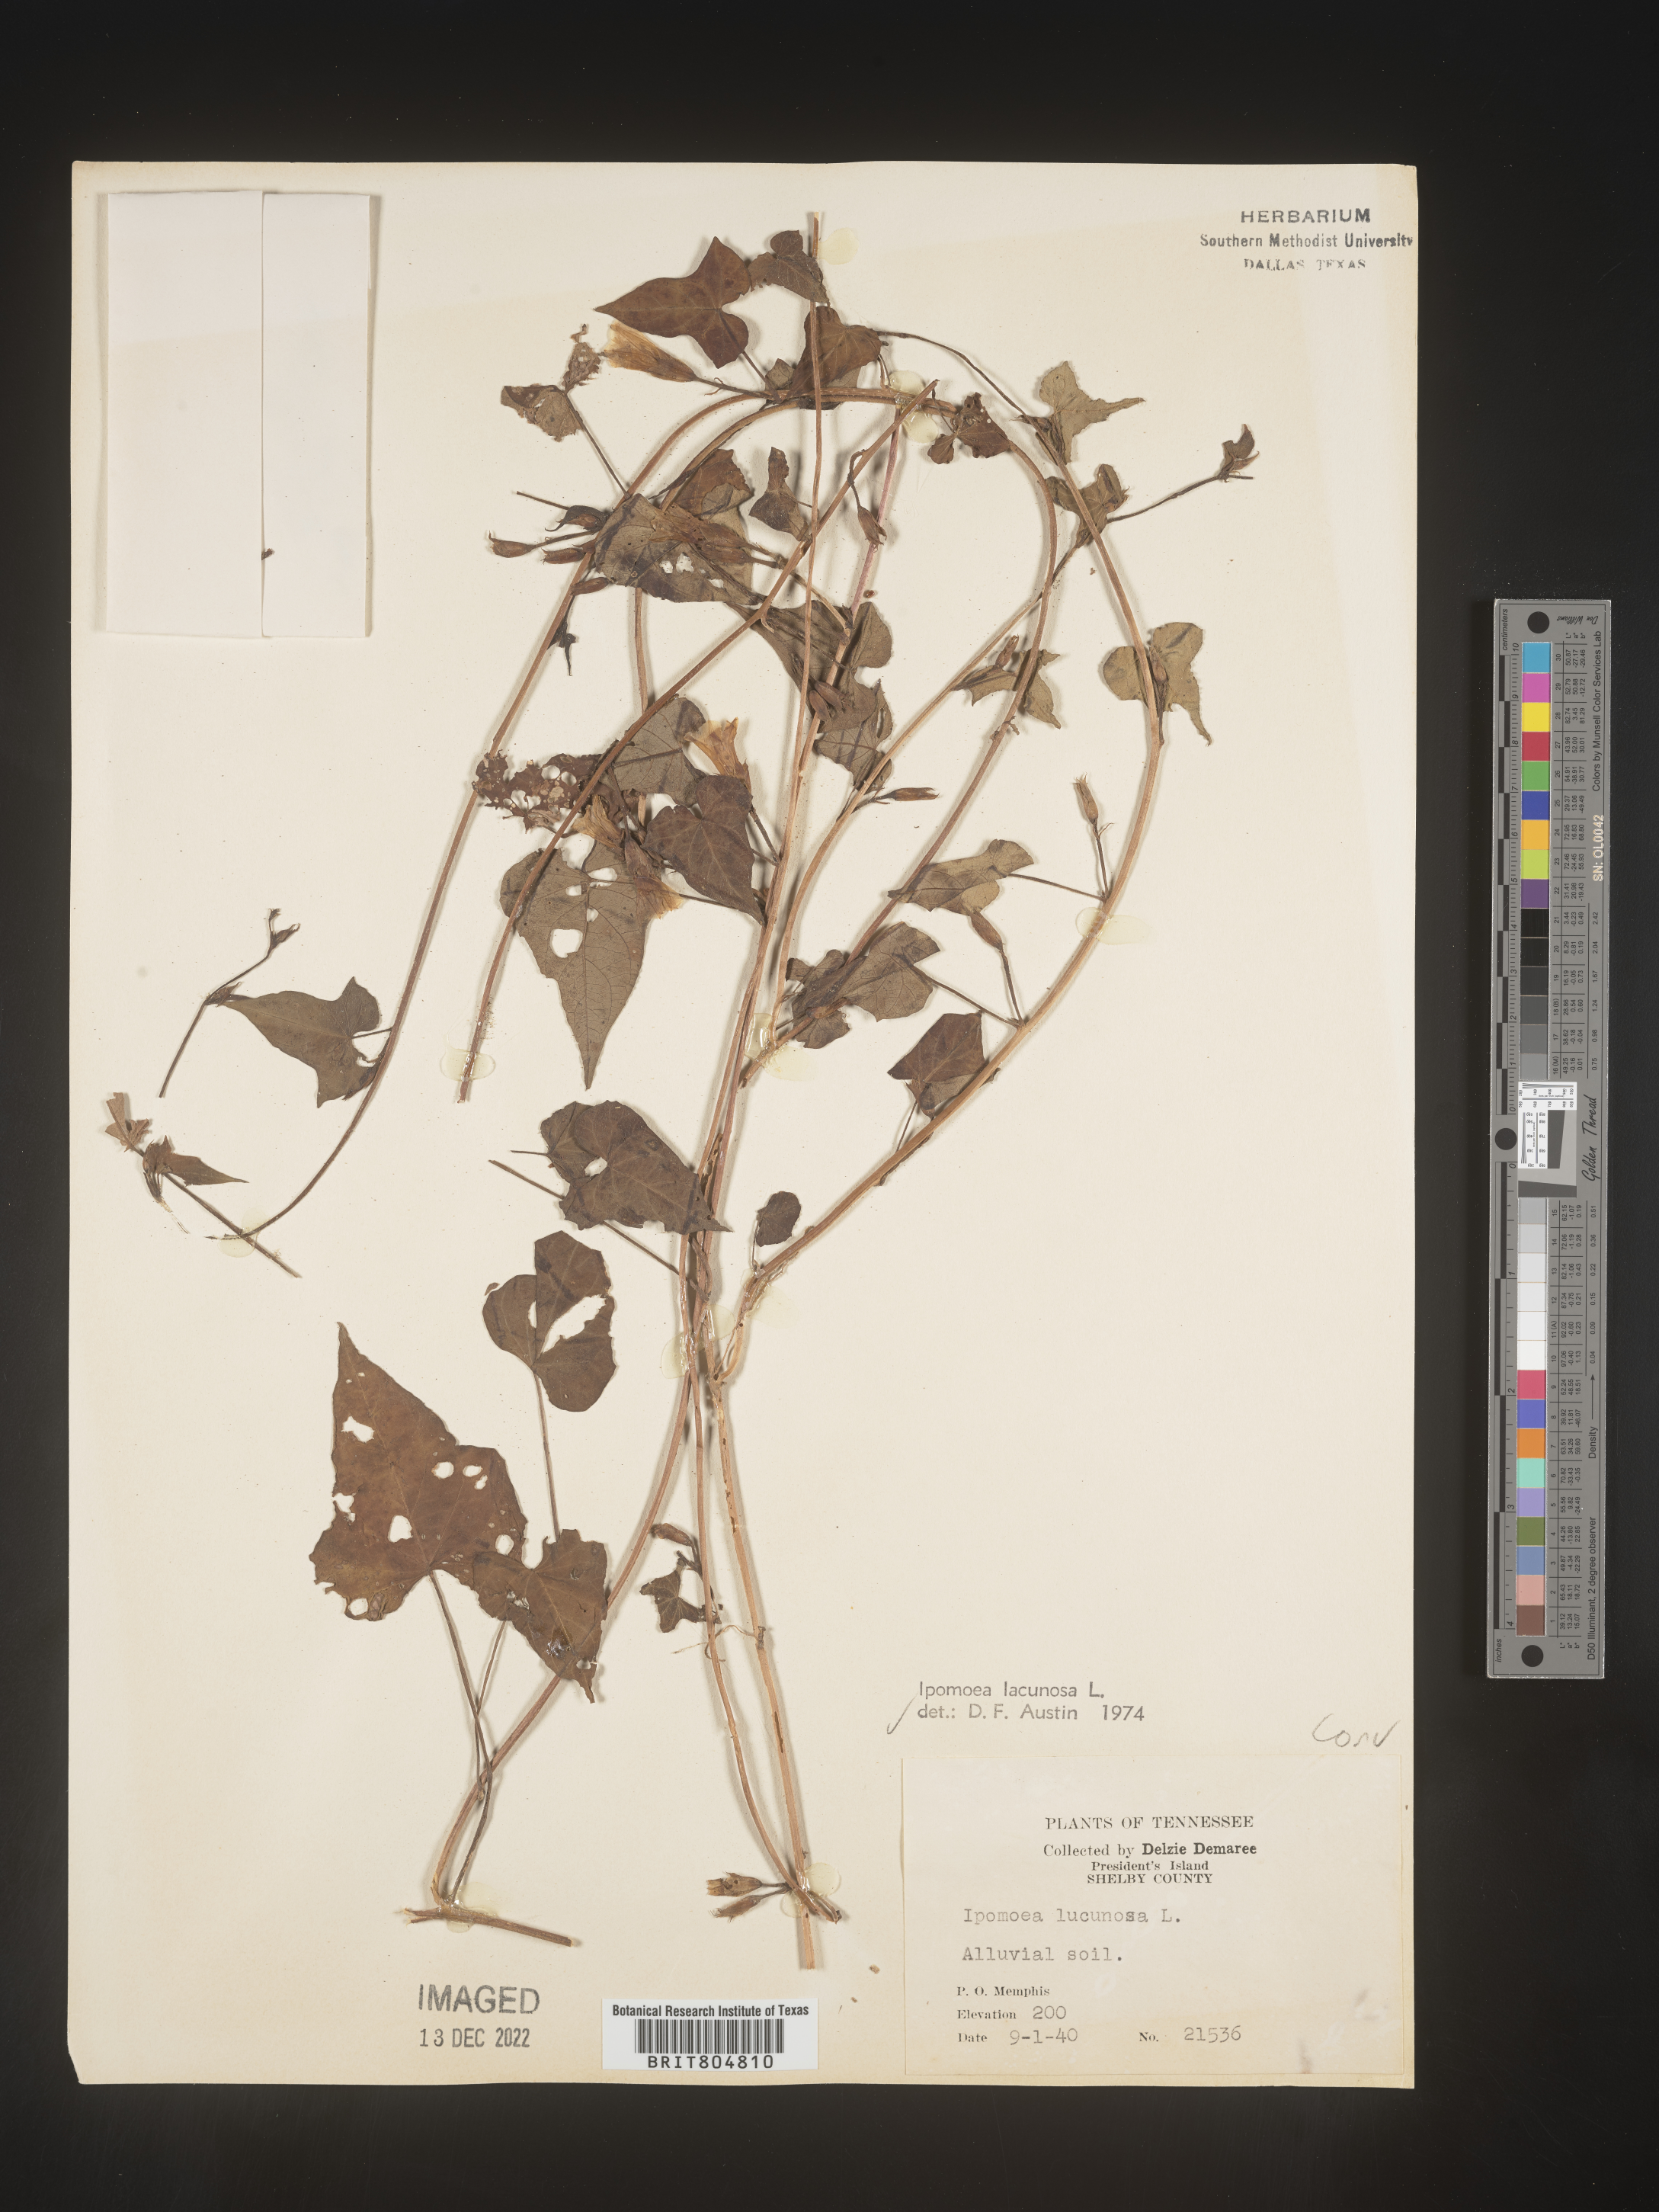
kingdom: Plantae
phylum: Tracheophyta
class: Magnoliopsida
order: Solanales
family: Convolvulaceae
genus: Ipomoea
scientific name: Ipomoea lacunosa
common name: White morning-glory
